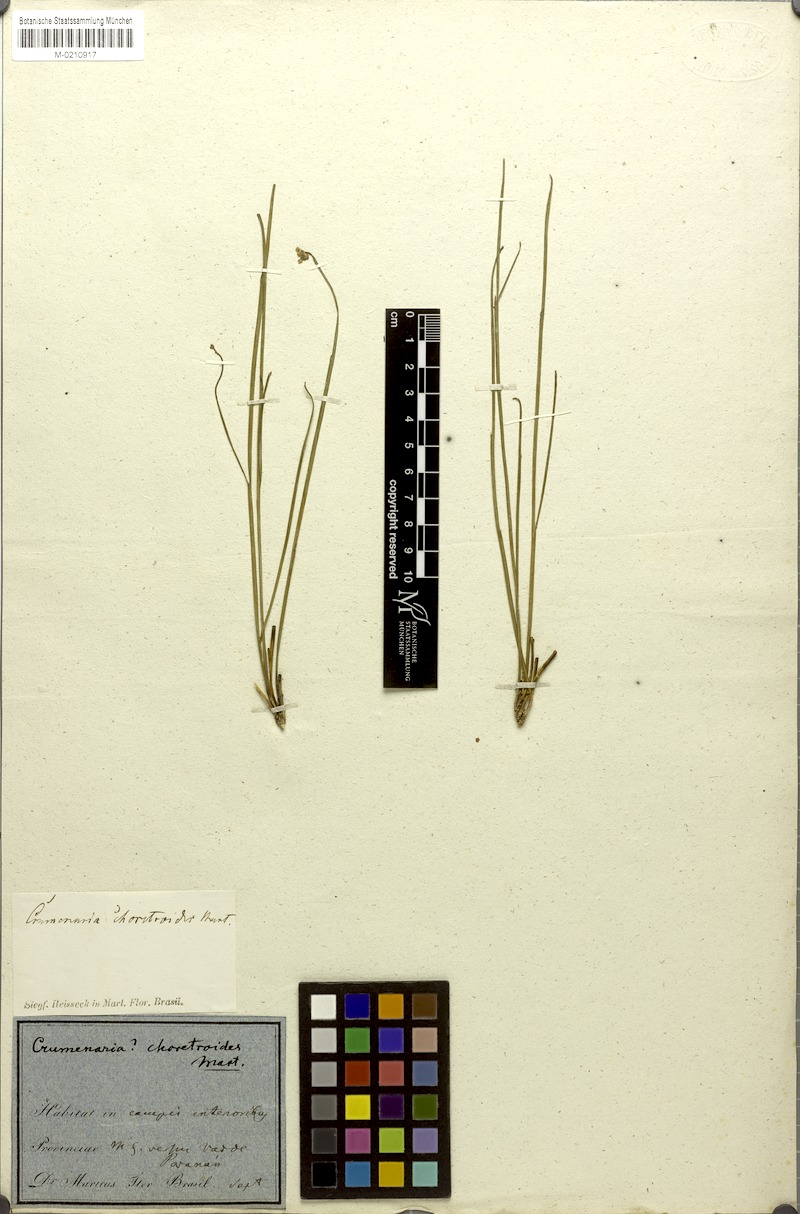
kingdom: Plantae
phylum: Tracheophyta
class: Magnoliopsida
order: Rosales
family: Rhamnaceae
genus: Crumenaria
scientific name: Crumenaria erecta
